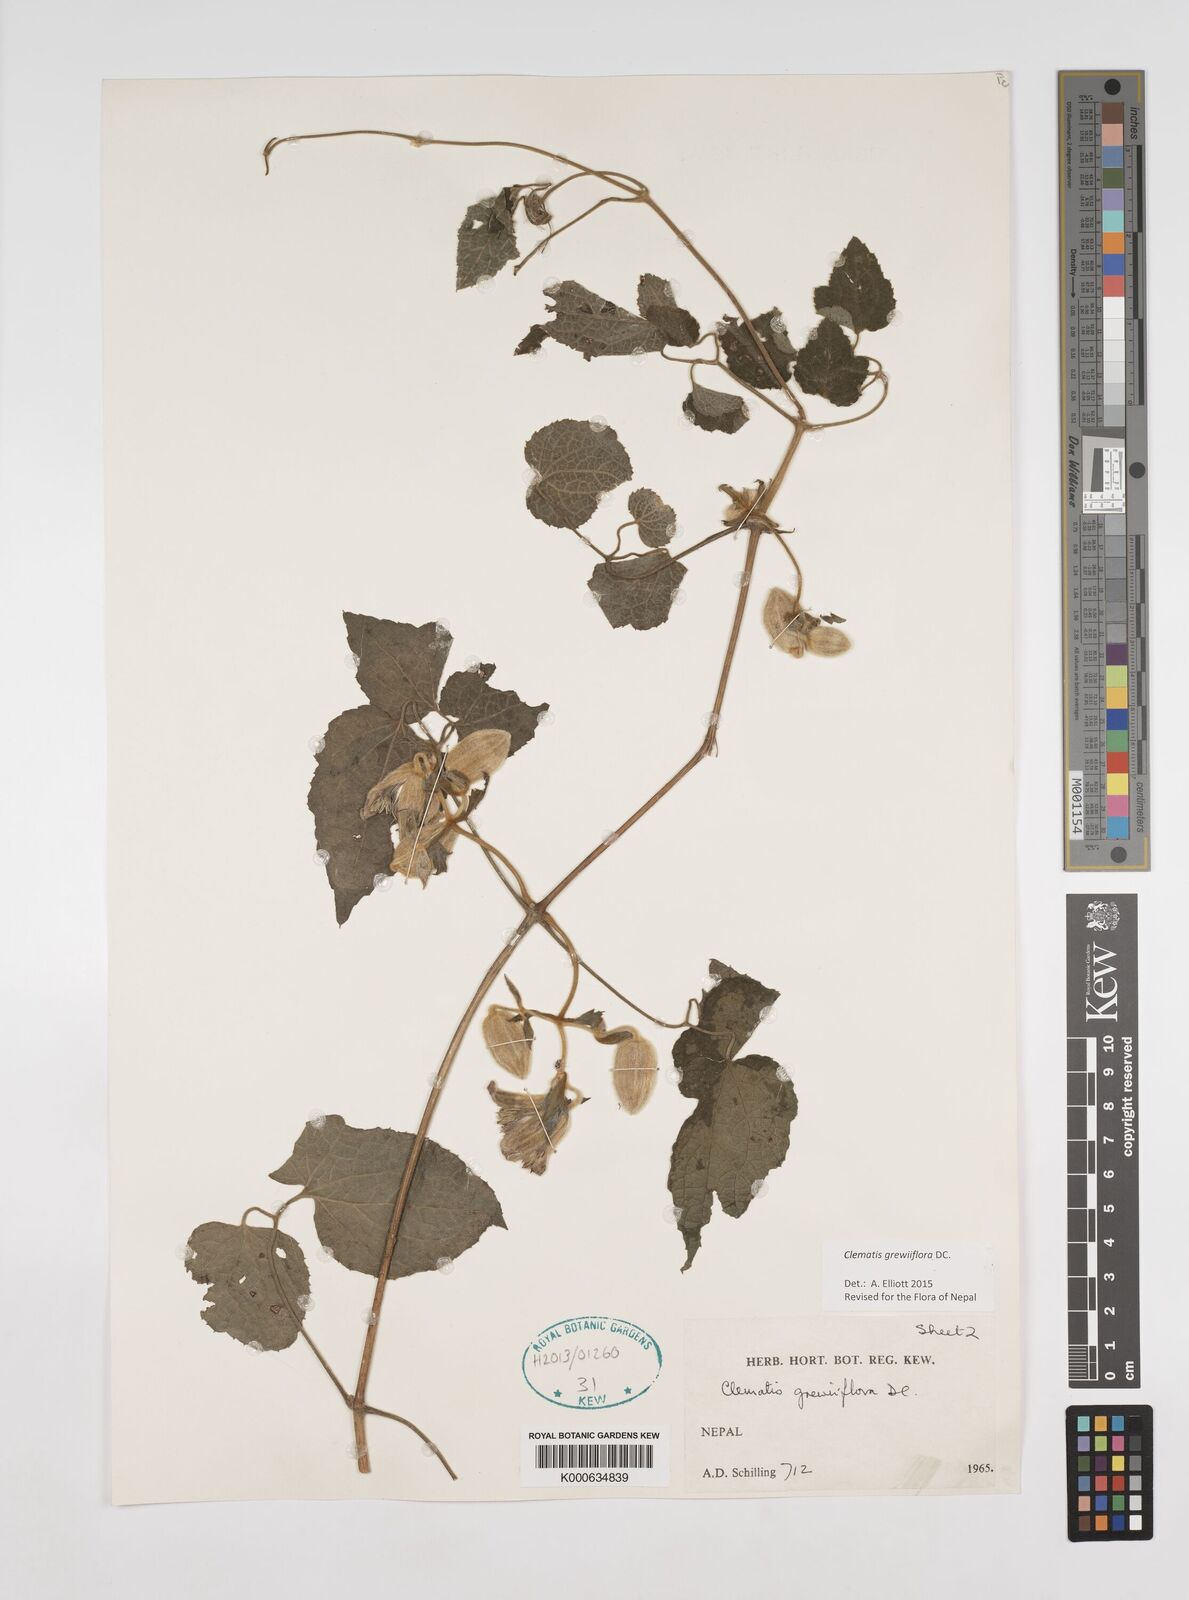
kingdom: Plantae
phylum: Tracheophyta
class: Magnoliopsida
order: Ranunculales
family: Ranunculaceae
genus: Clematis
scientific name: Clematis grewiiflora
